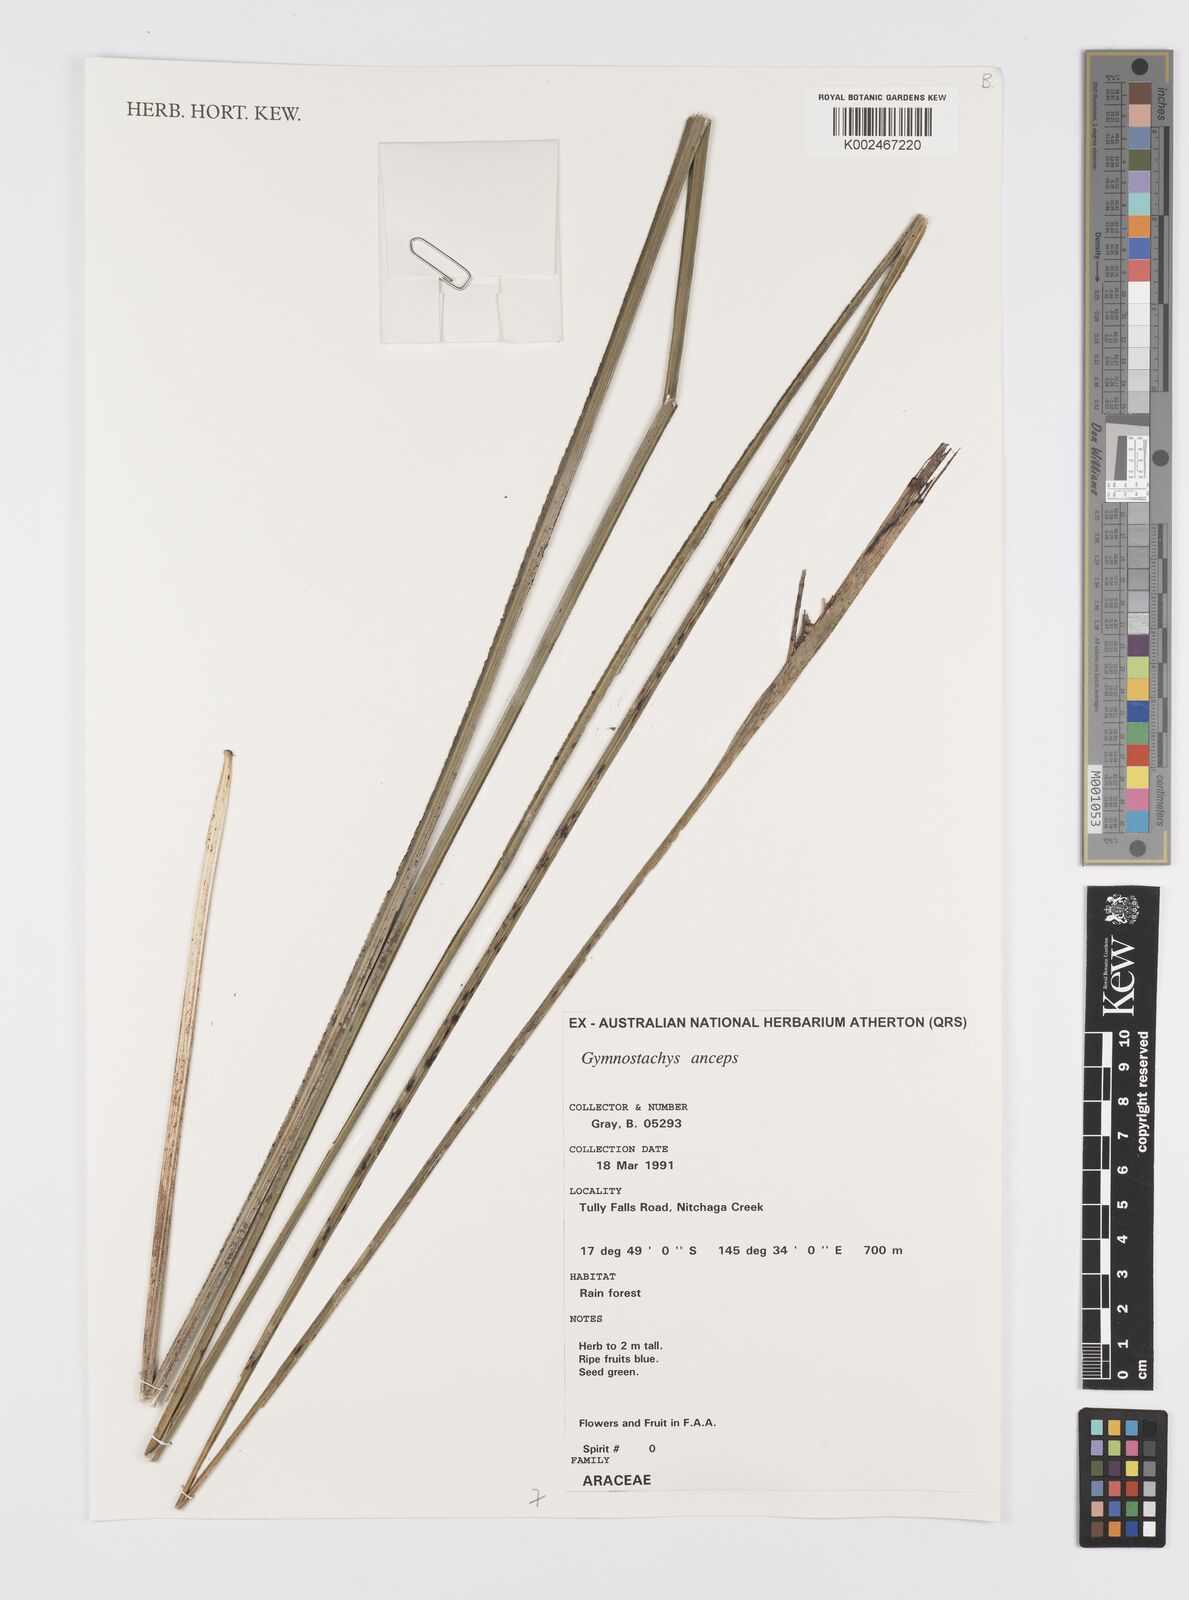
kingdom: Plantae
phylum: Tracheophyta
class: Liliopsida
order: Alismatales
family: Araceae
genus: Gymnostachys
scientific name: Gymnostachys anceps
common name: Settler's-flax
